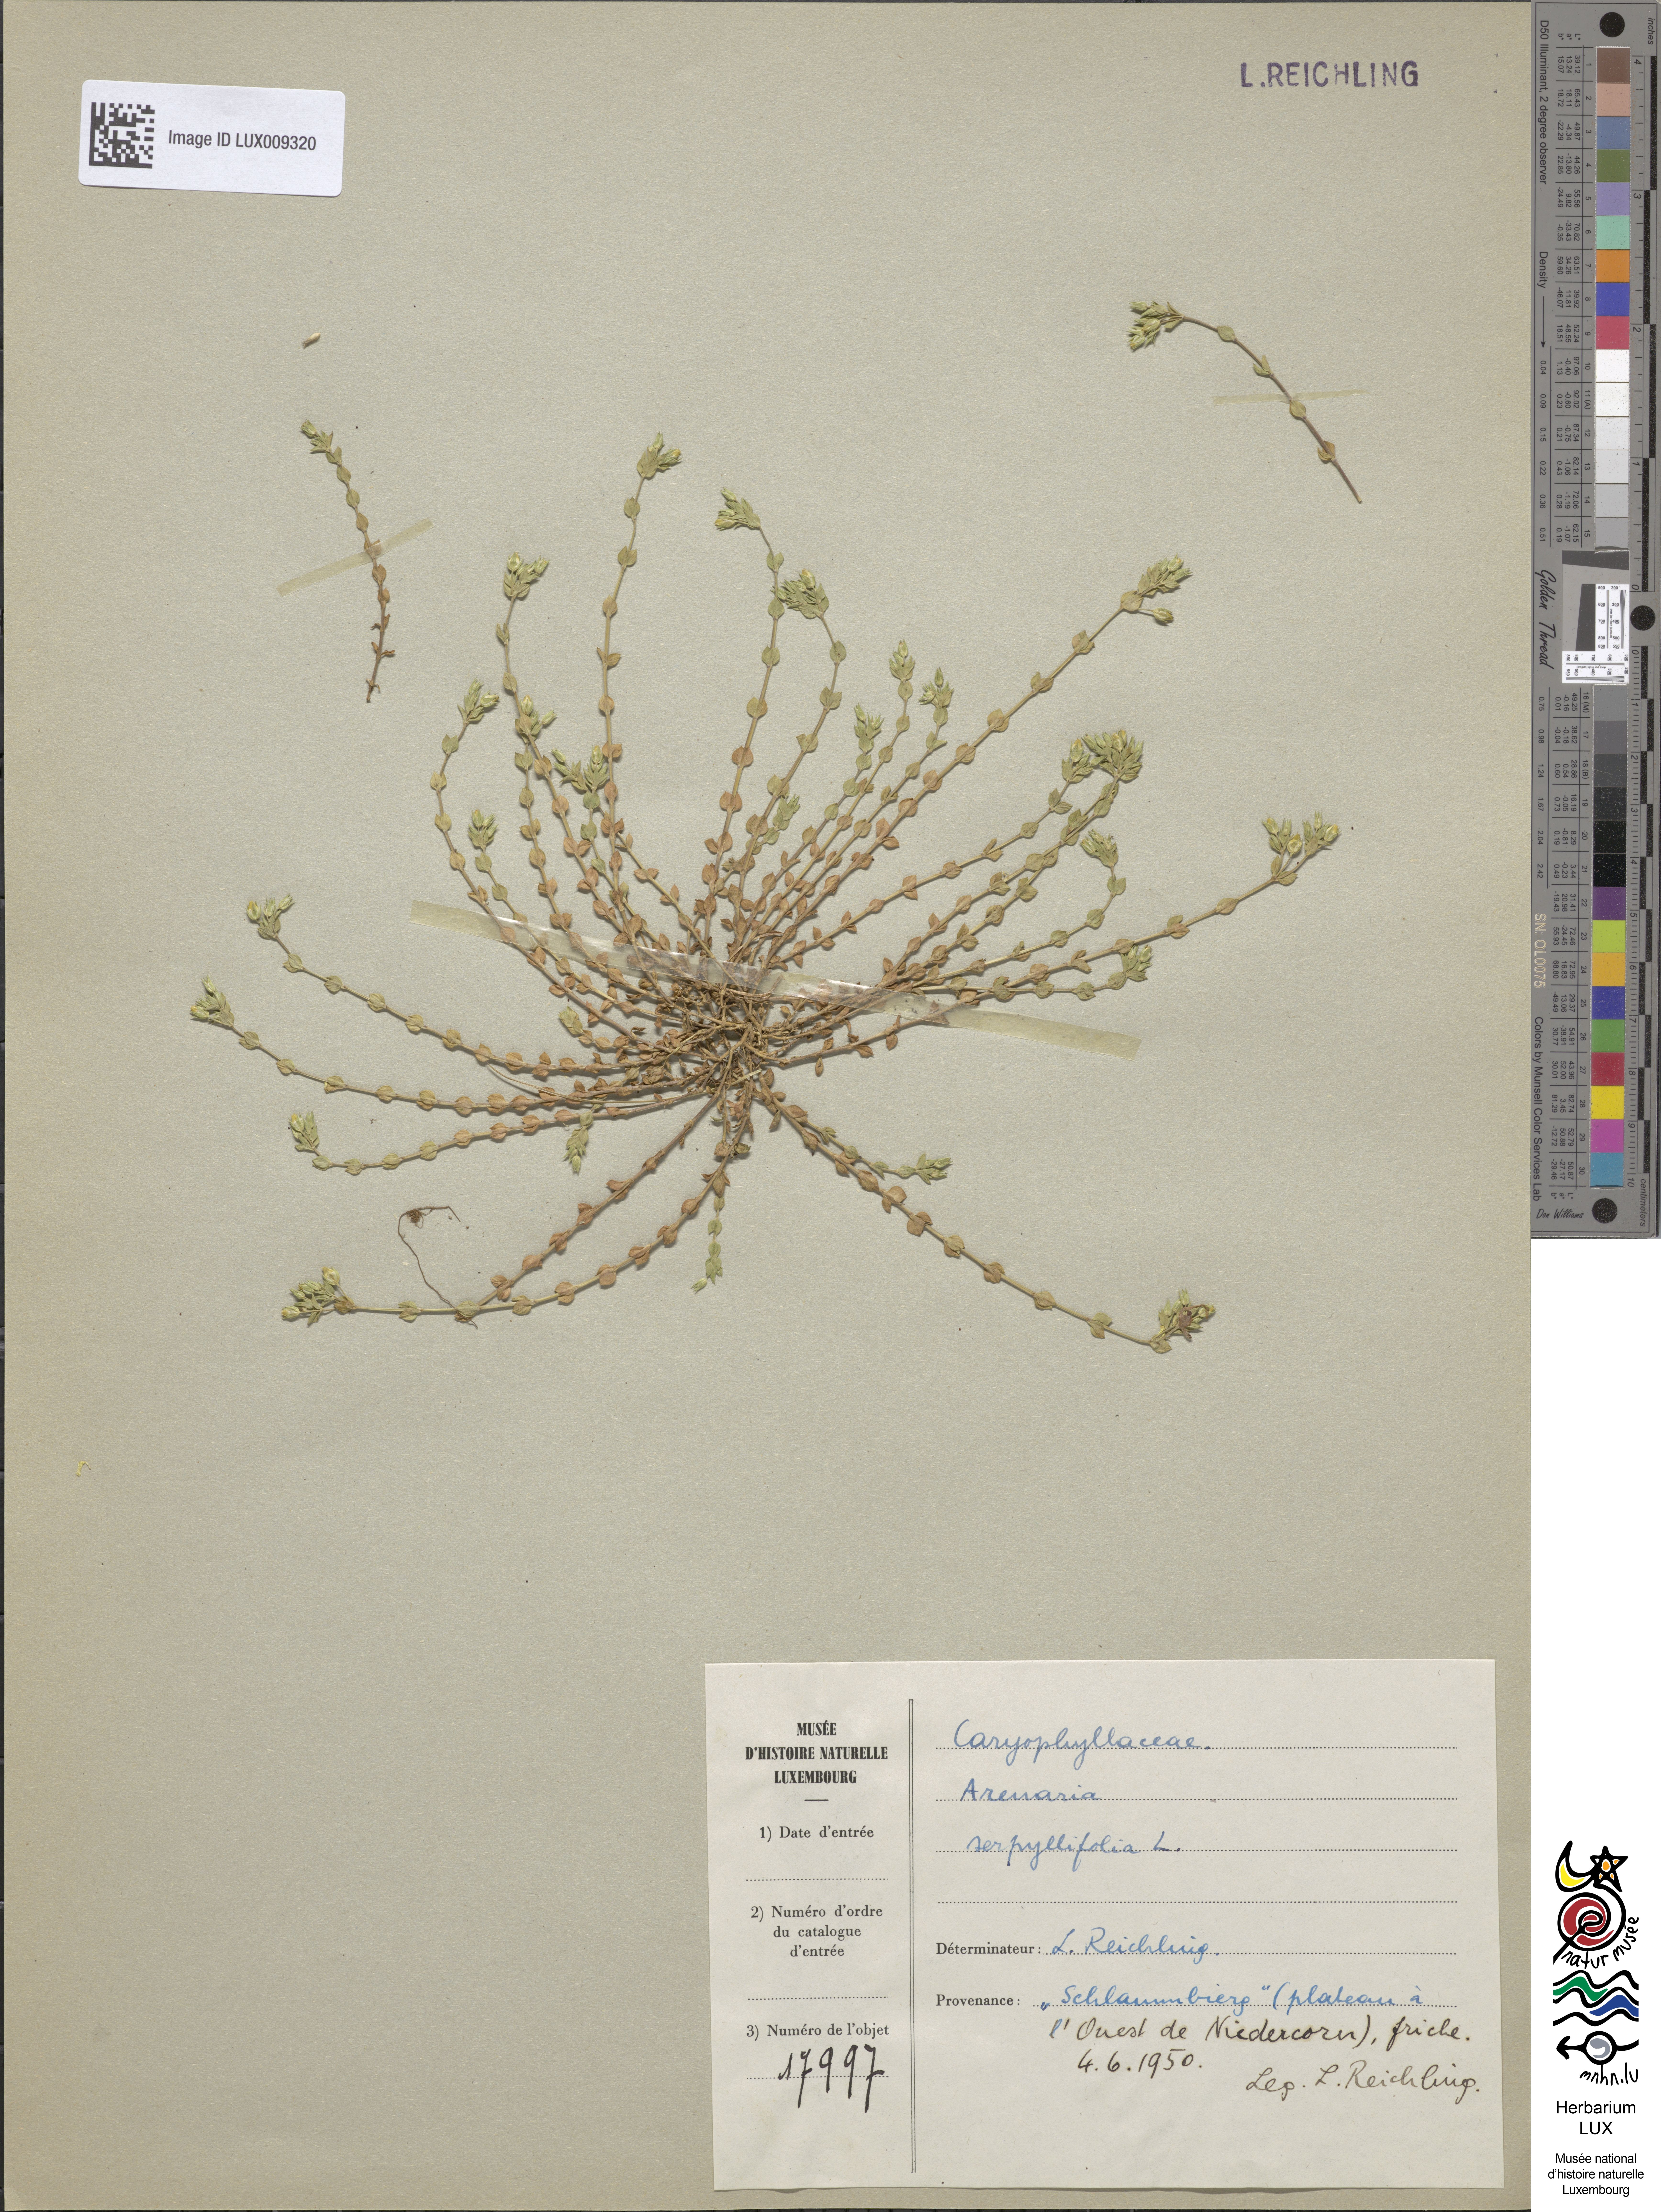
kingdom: Plantae
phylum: Tracheophyta
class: Magnoliopsida
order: Caryophyllales
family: Caryophyllaceae
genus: Arenaria
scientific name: Arenaria serpyllifolia
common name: Thyme-leaved sandwort
